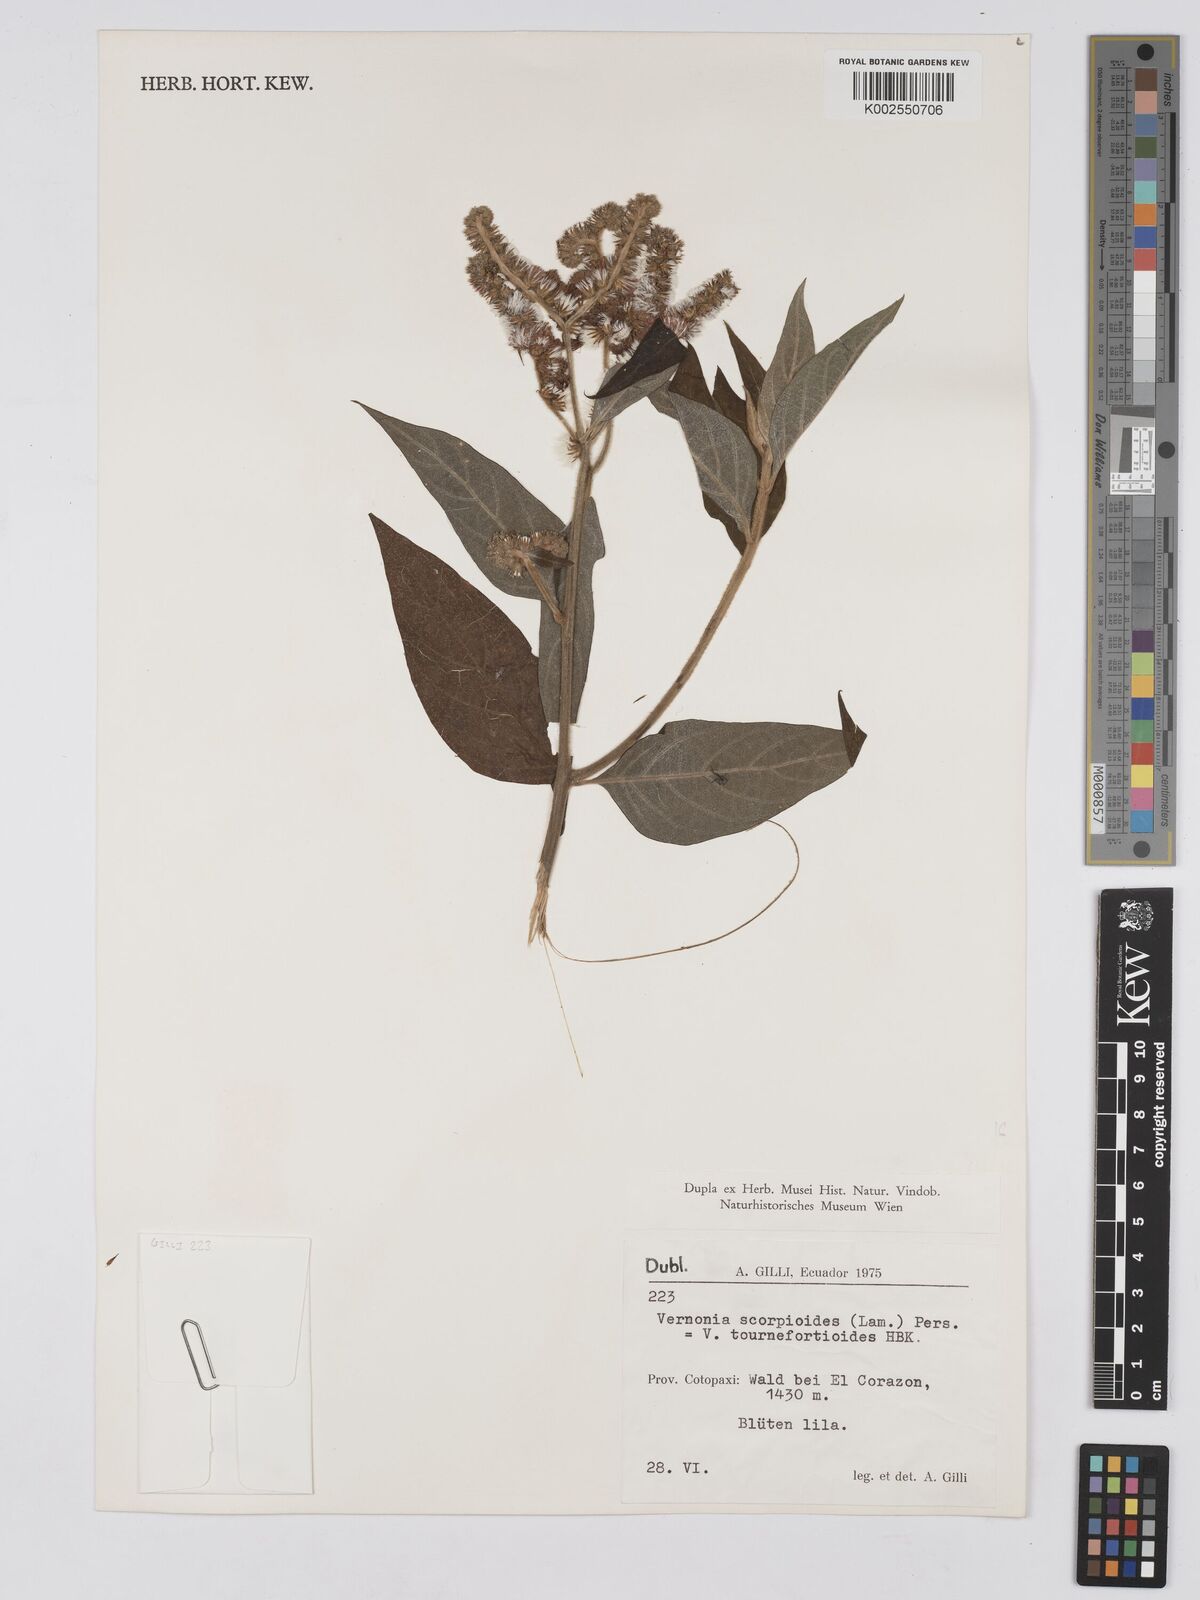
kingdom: Plantae
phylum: Tracheophyta
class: Magnoliopsida
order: Asterales
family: Asteraceae
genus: Cyrtocymura
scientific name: Cyrtocymura scorpioides
